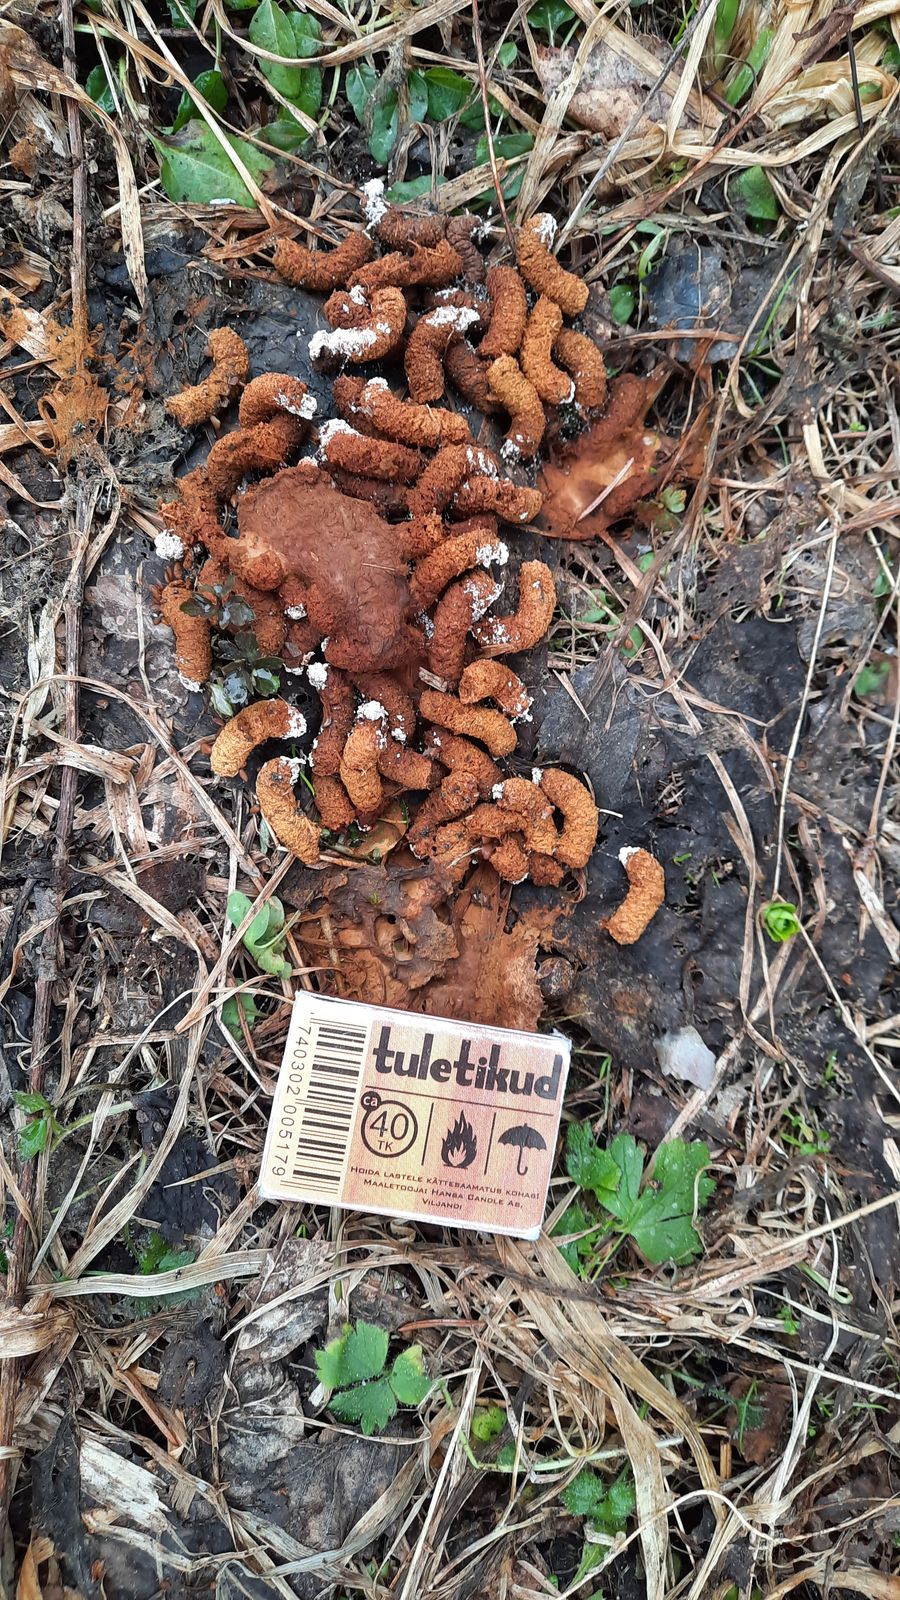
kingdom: Animalia
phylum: Chordata
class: Aves
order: Galliformes
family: Phasianidae
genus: Tetrastes
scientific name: Tetrastes bonasia
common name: Hazel grouse
